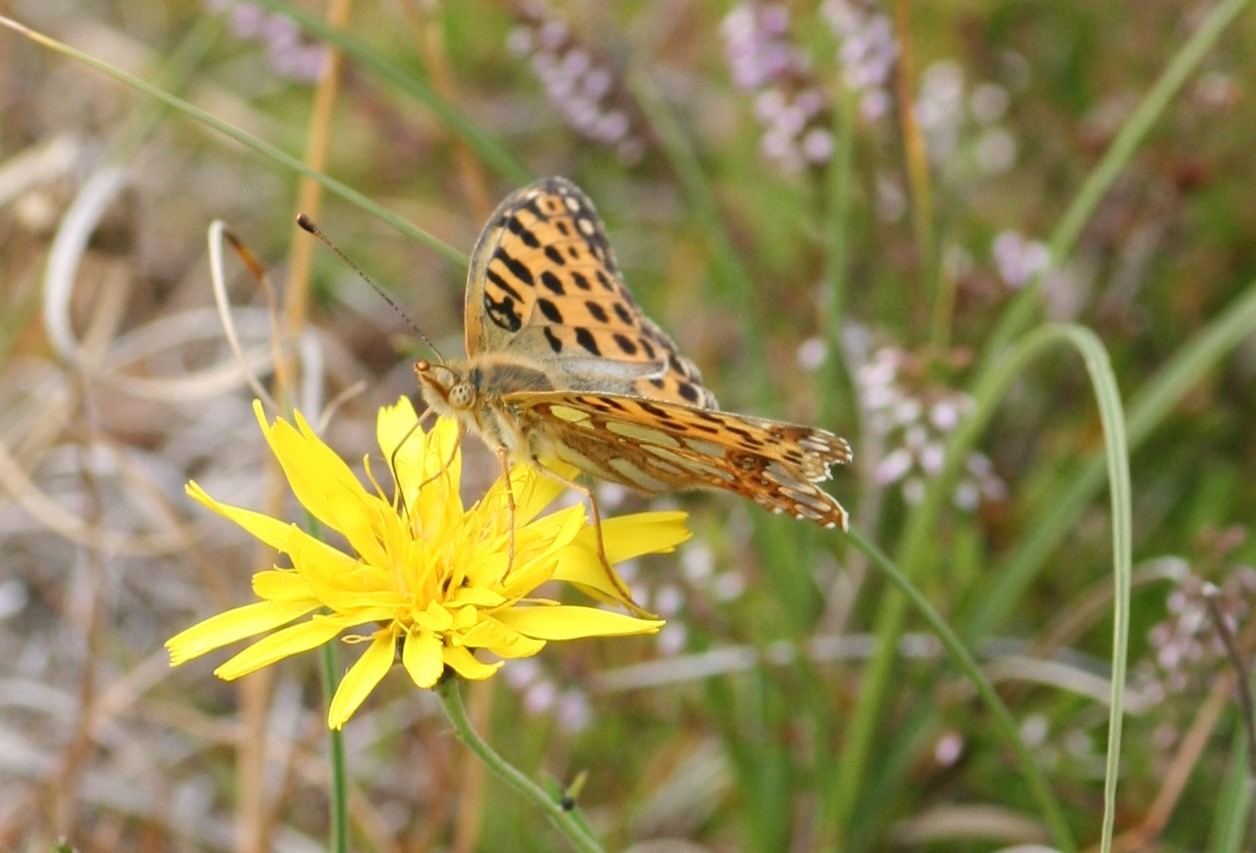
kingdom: Animalia
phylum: Arthropoda
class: Insecta
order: Lepidoptera
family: Nymphalidae
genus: Issoria
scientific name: Issoria lathonia
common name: Storplettet perlemorsommerfugl
